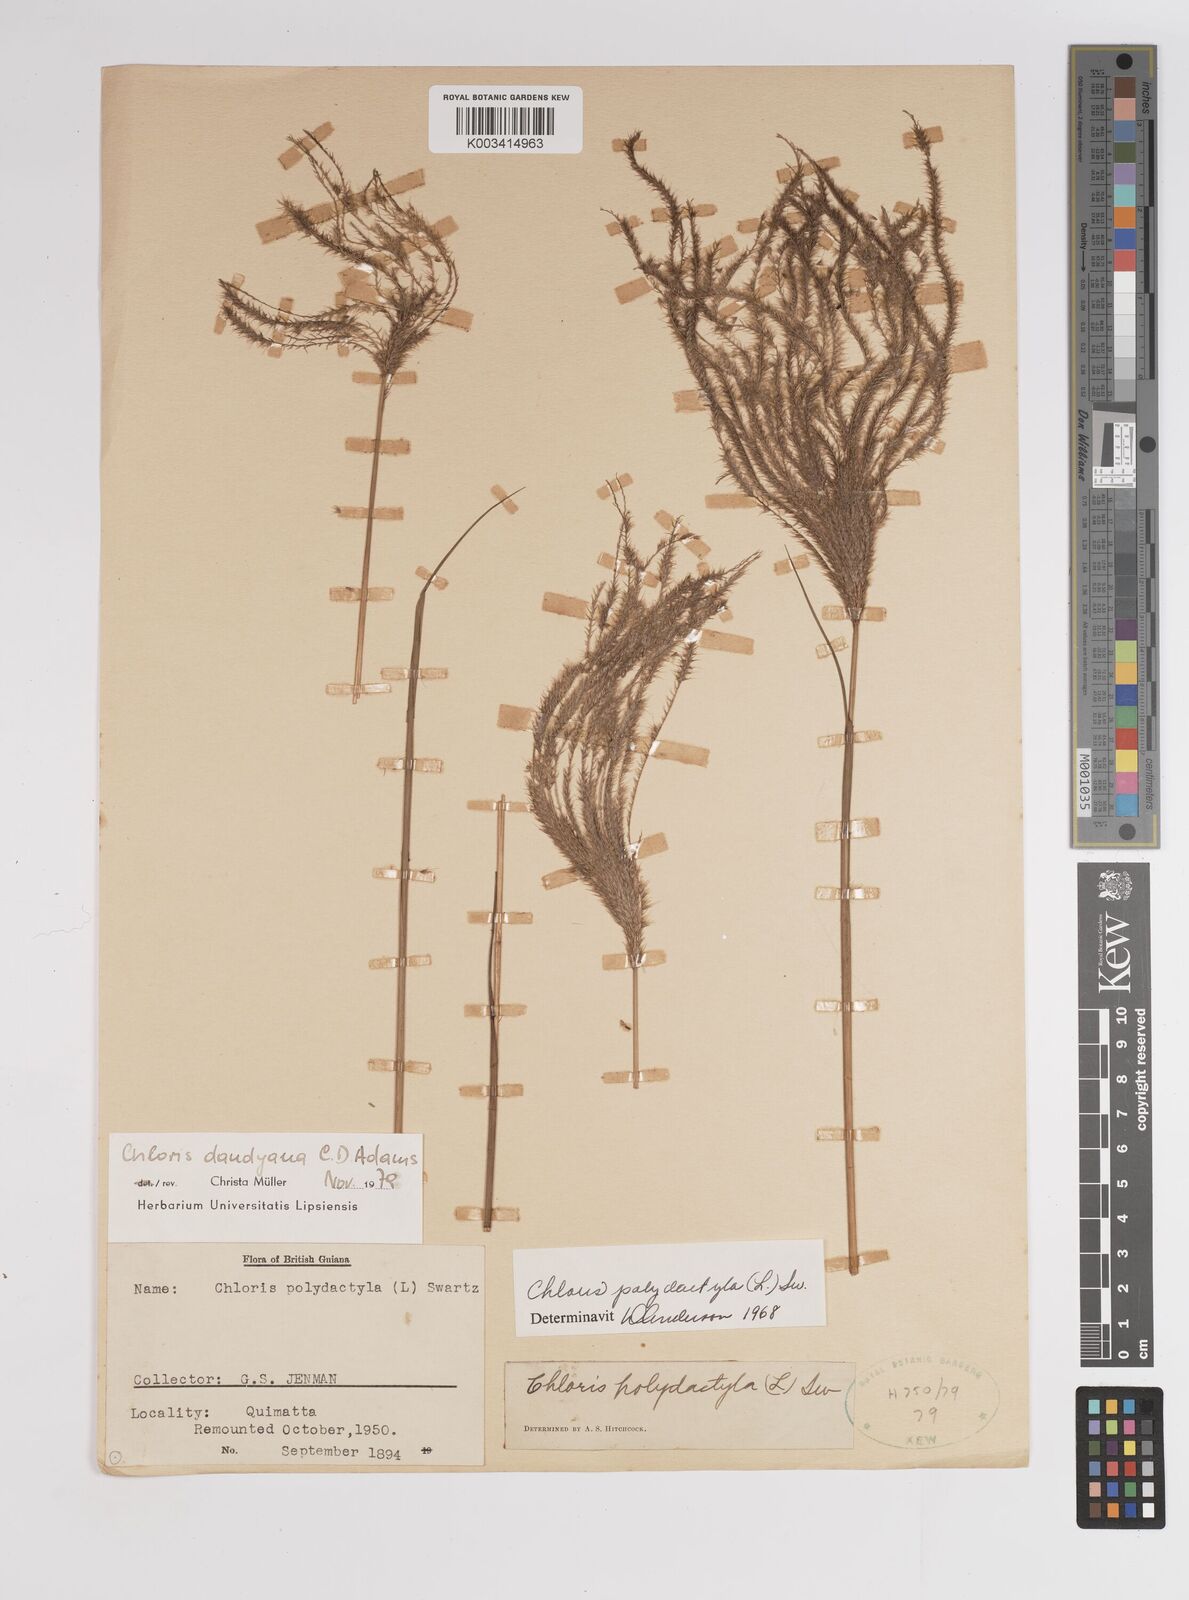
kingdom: Plantae
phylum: Tracheophyta
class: Liliopsida
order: Poales
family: Poaceae
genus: Stapfochloa
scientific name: Stapfochloa elata
